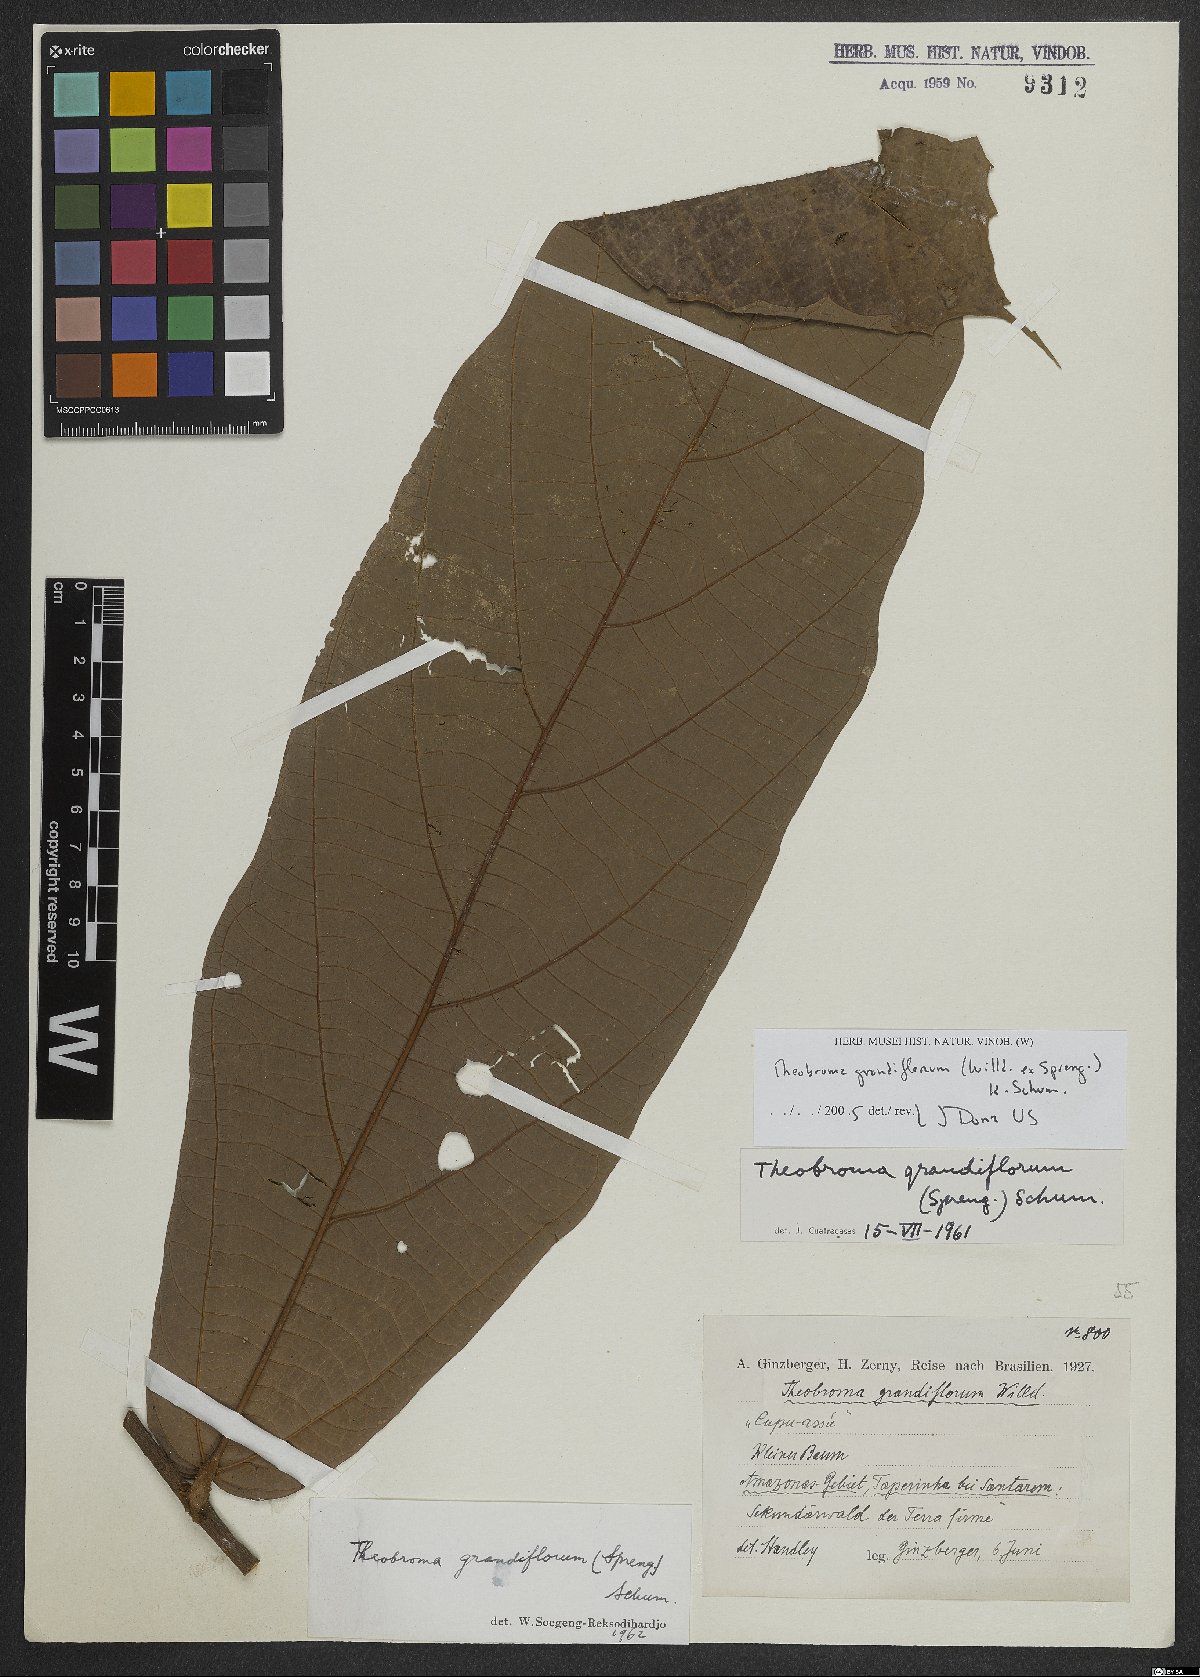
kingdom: Plantae
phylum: Tracheophyta
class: Magnoliopsida
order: Malvales
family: Malvaceae
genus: Theobroma
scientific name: Theobroma grandiflorum
